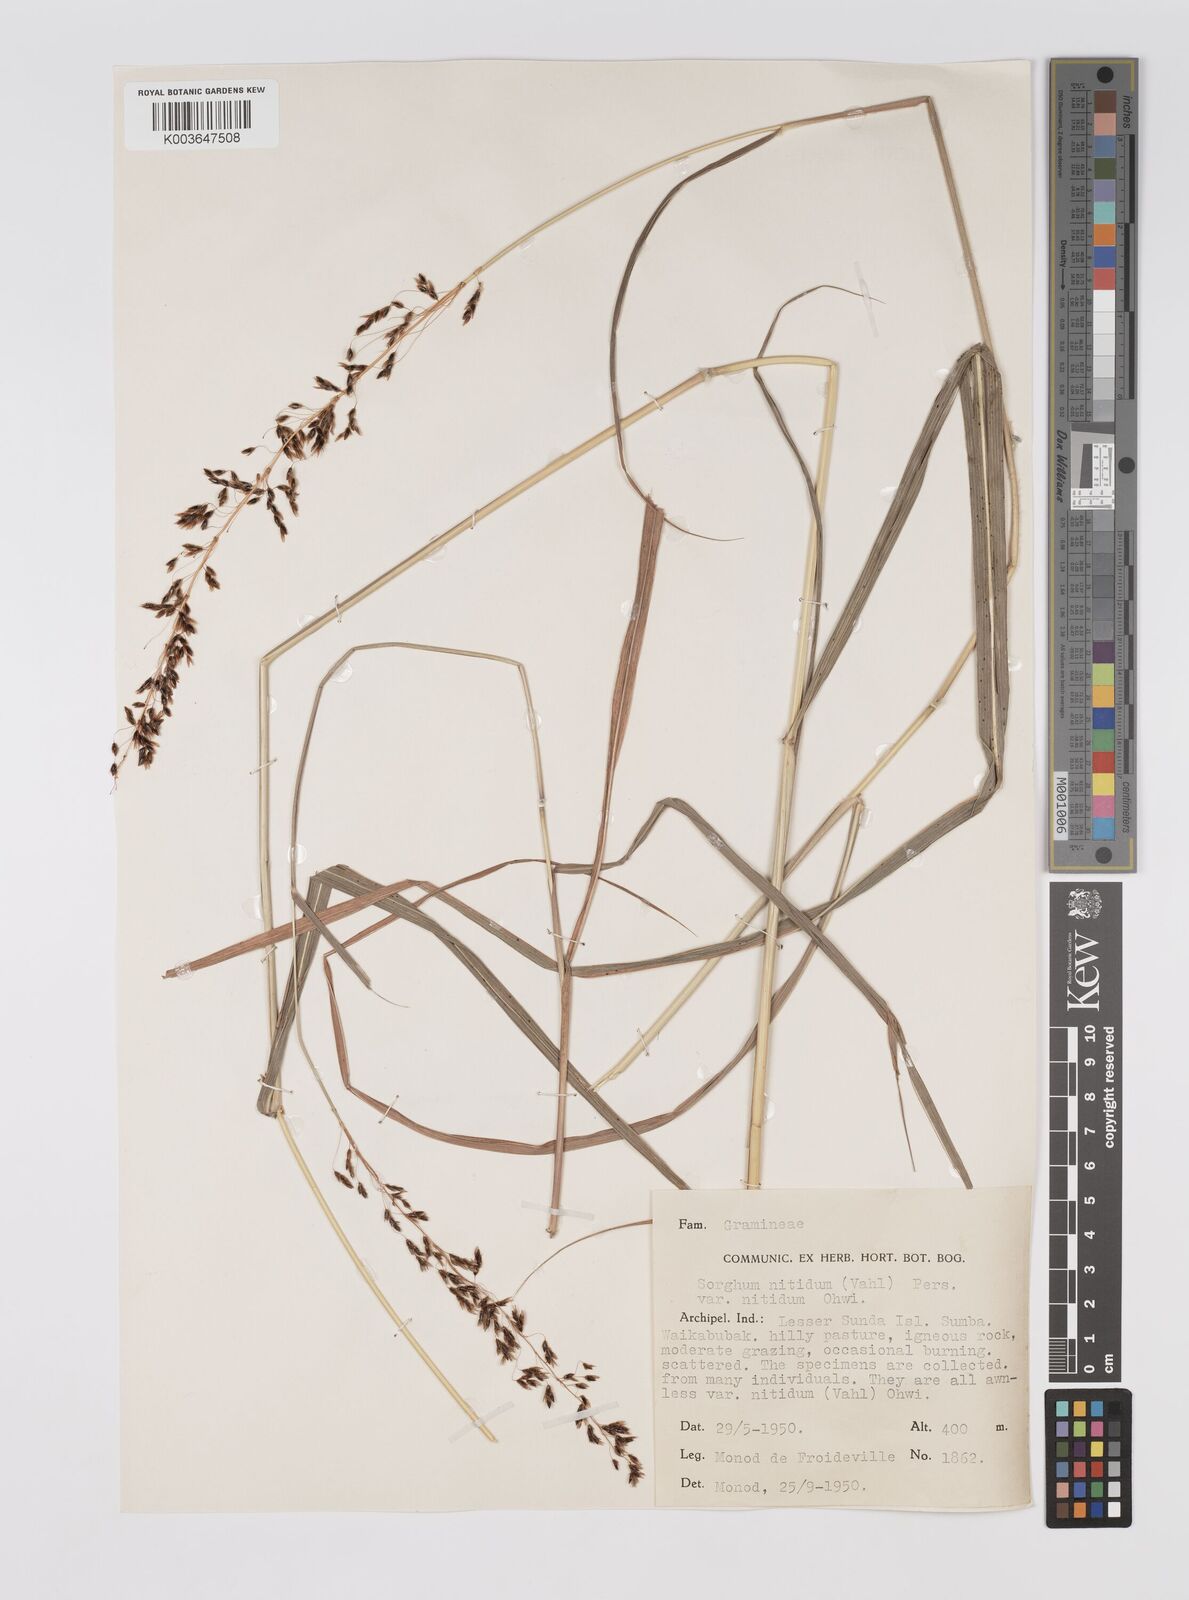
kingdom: Plantae
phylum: Tracheophyta
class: Liliopsida
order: Poales
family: Poaceae
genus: Sorghum
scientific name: Sorghum nitidum
